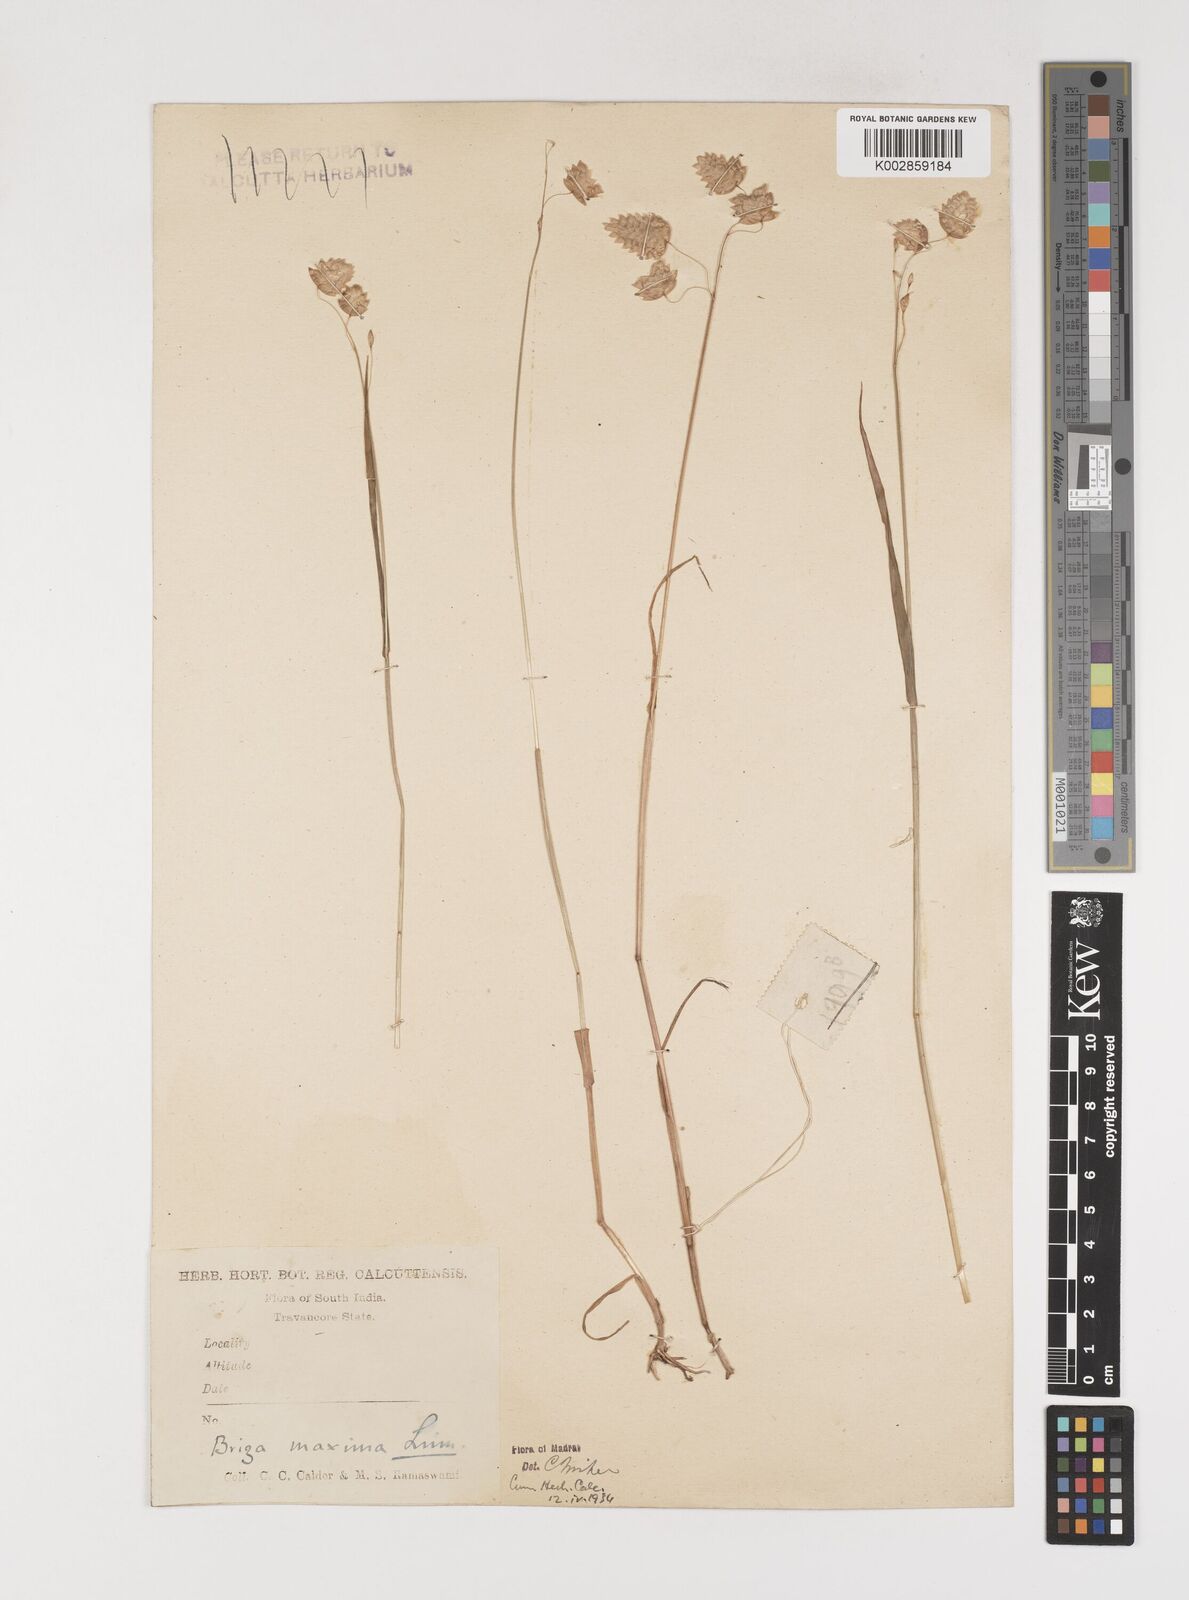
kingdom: Plantae
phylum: Tracheophyta
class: Liliopsida
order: Poales
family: Poaceae
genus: Briza
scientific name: Briza maxima
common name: Big quakinggrass
